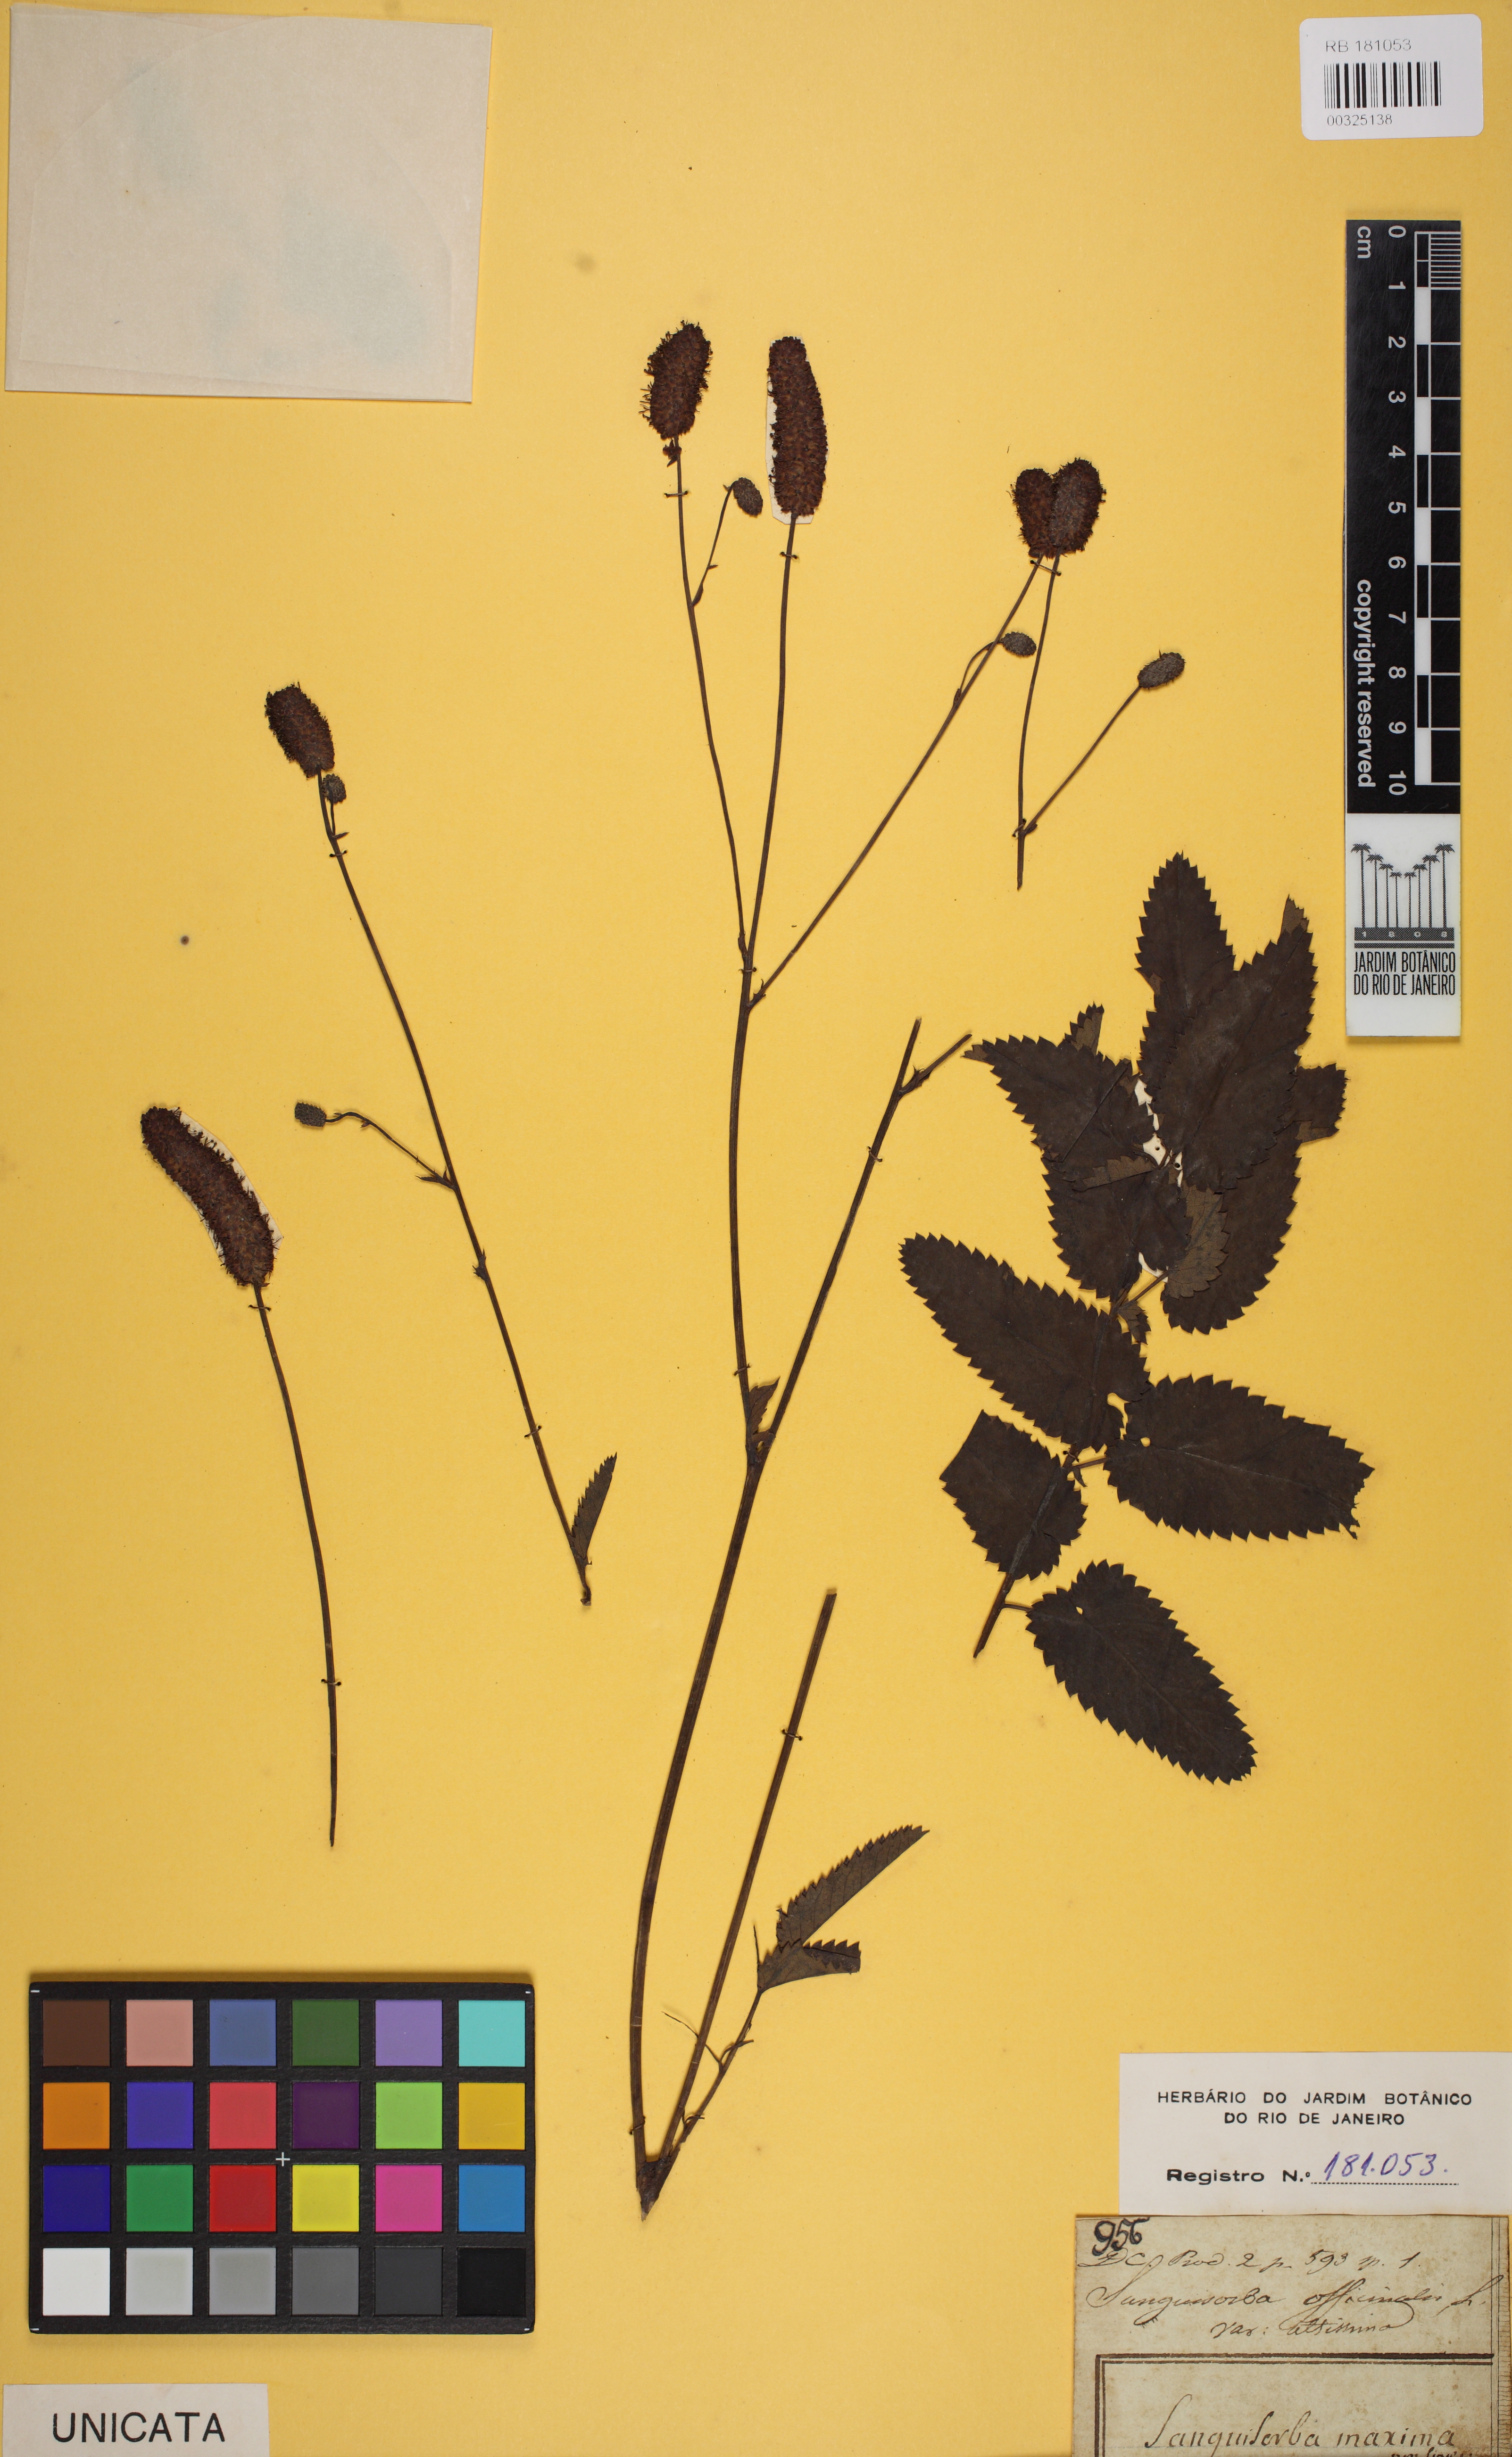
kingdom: Plantae
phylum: Tracheophyta
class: Magnoliopsida
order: Rosales
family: Rosaceae
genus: Sanguisorba
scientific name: Sanguisorba officinalis
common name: Great burnet
